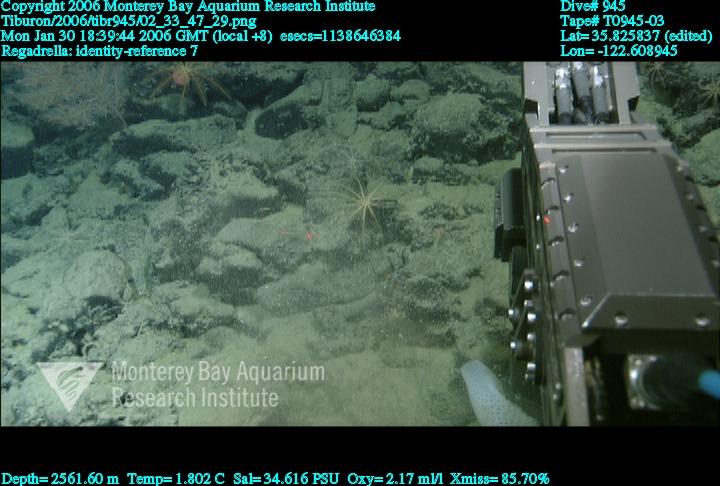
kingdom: Animalia
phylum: Porifera
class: Hexactinellida
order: Lyssacinosida
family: Euplectellidae
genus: Regadrella
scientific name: Regadrella
